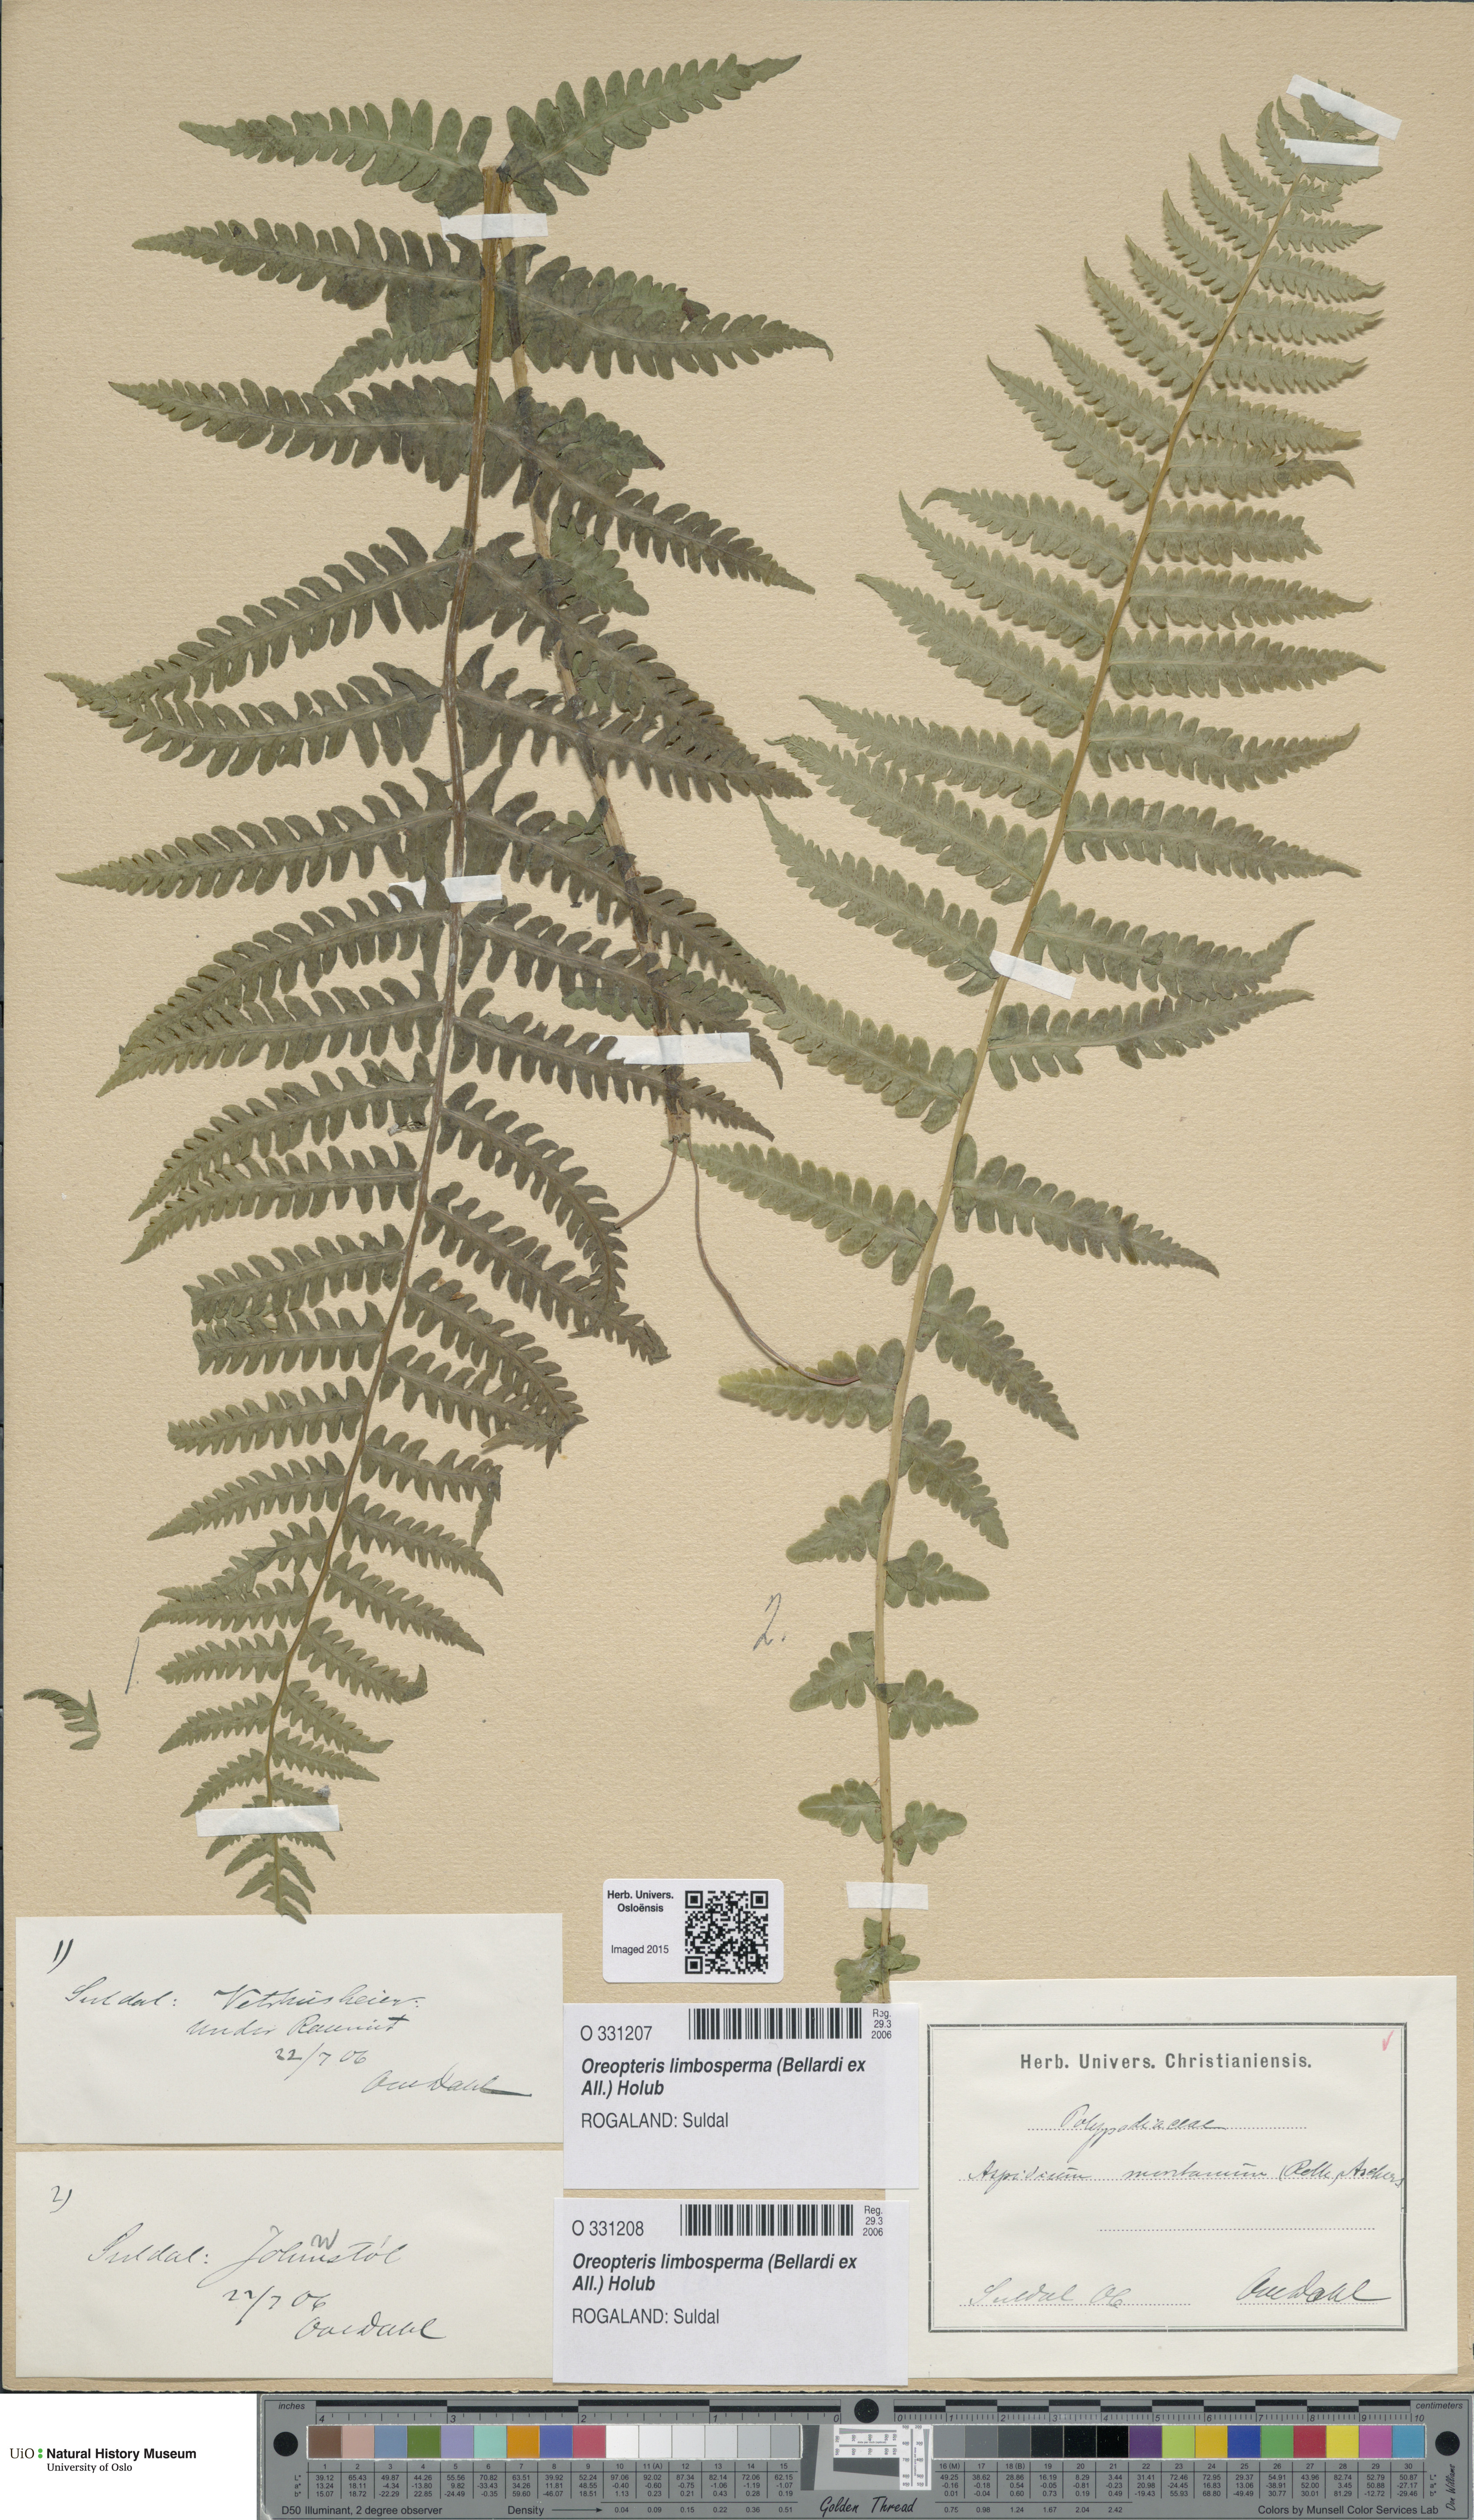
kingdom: Plantae
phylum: Tracheophyta
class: Polypodiopsida
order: Polypodiales
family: Thelypteridaceae
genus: Oreopteris
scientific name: Oreopteris limbosperma
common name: Lemon-scented fern
